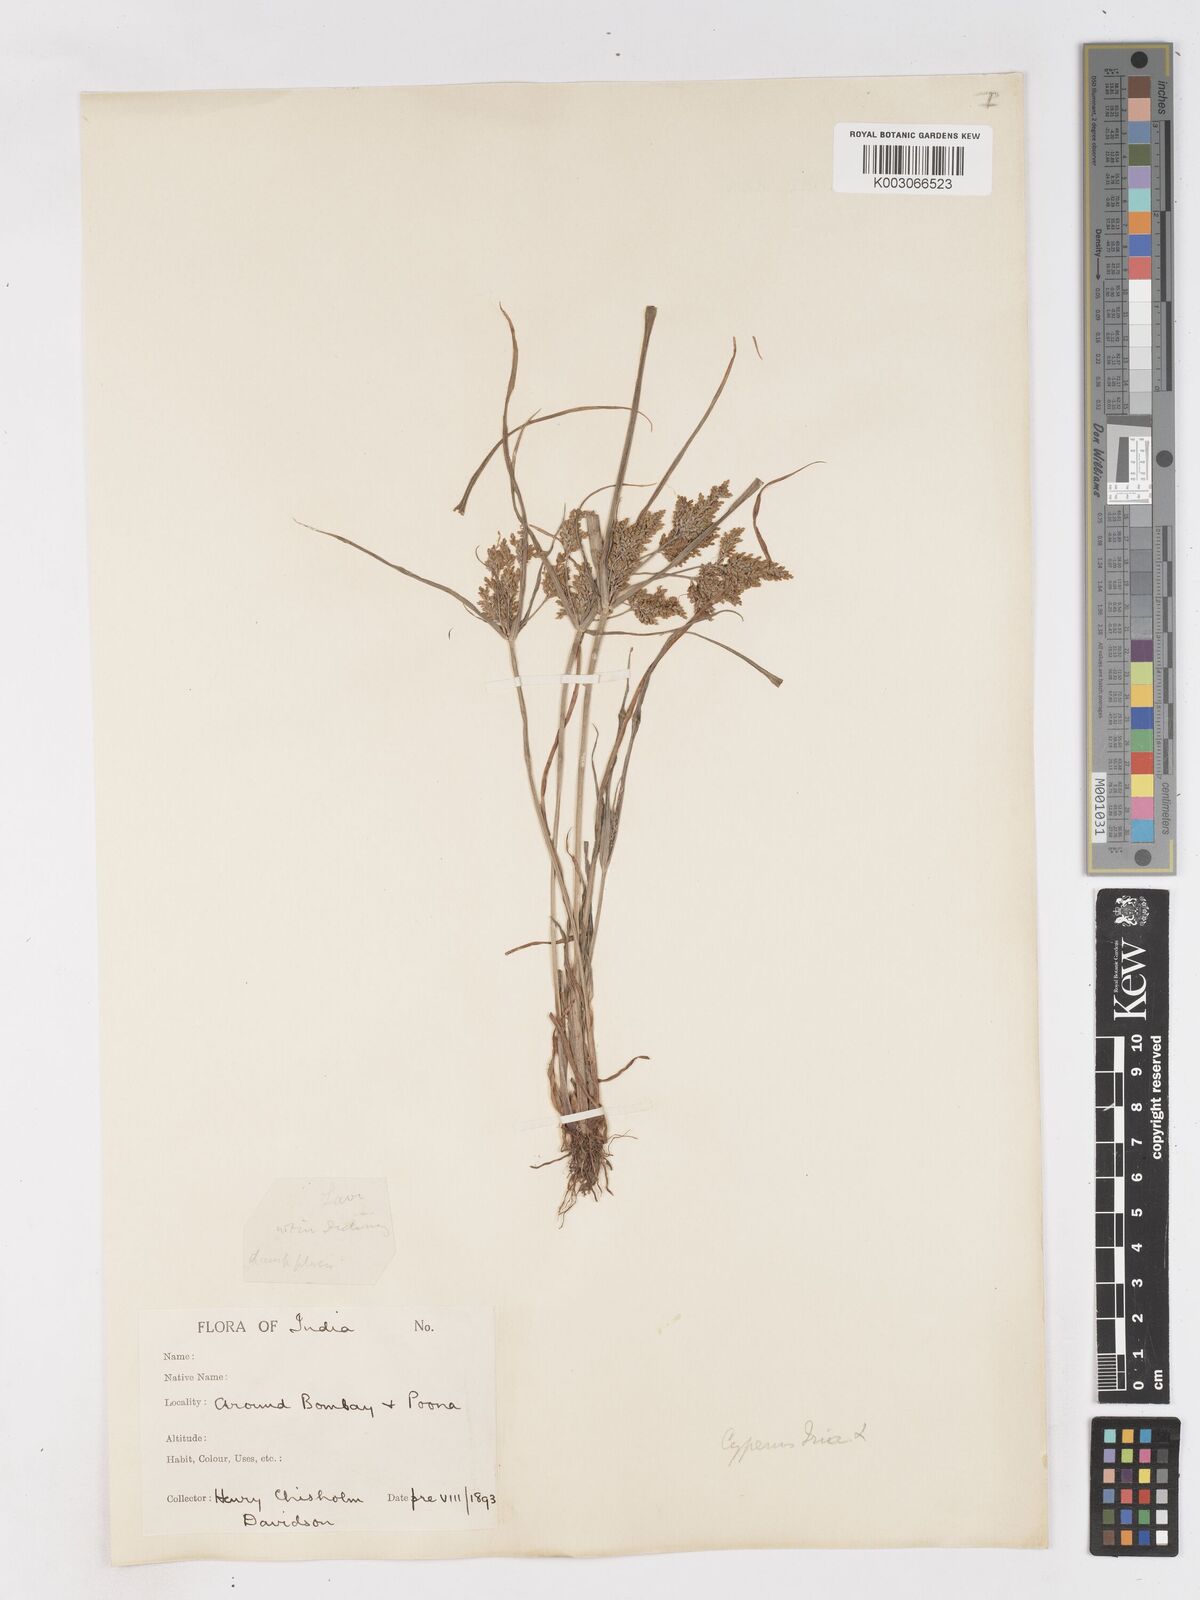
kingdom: Plantae
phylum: Tracheophyta
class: Liliopsida
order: Poales
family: Cyperaceae
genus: Cyperus
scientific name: Cyperus iria
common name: Ricefield flatsedge
